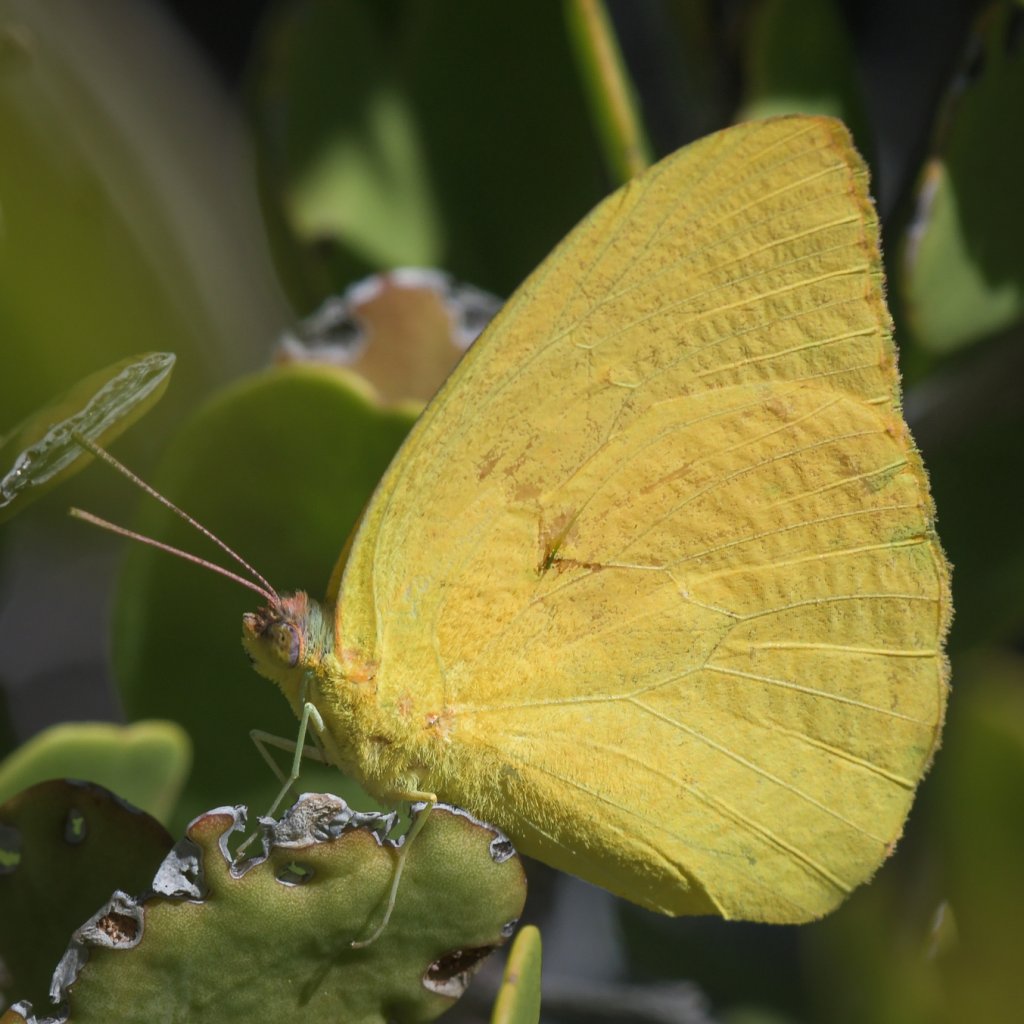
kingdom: Animalia
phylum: Arthropoda
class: Insecta
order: Lepidoptera
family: Pieridae
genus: Phoebis
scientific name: Phoebis agarithe
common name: Large Orange Sulphur
